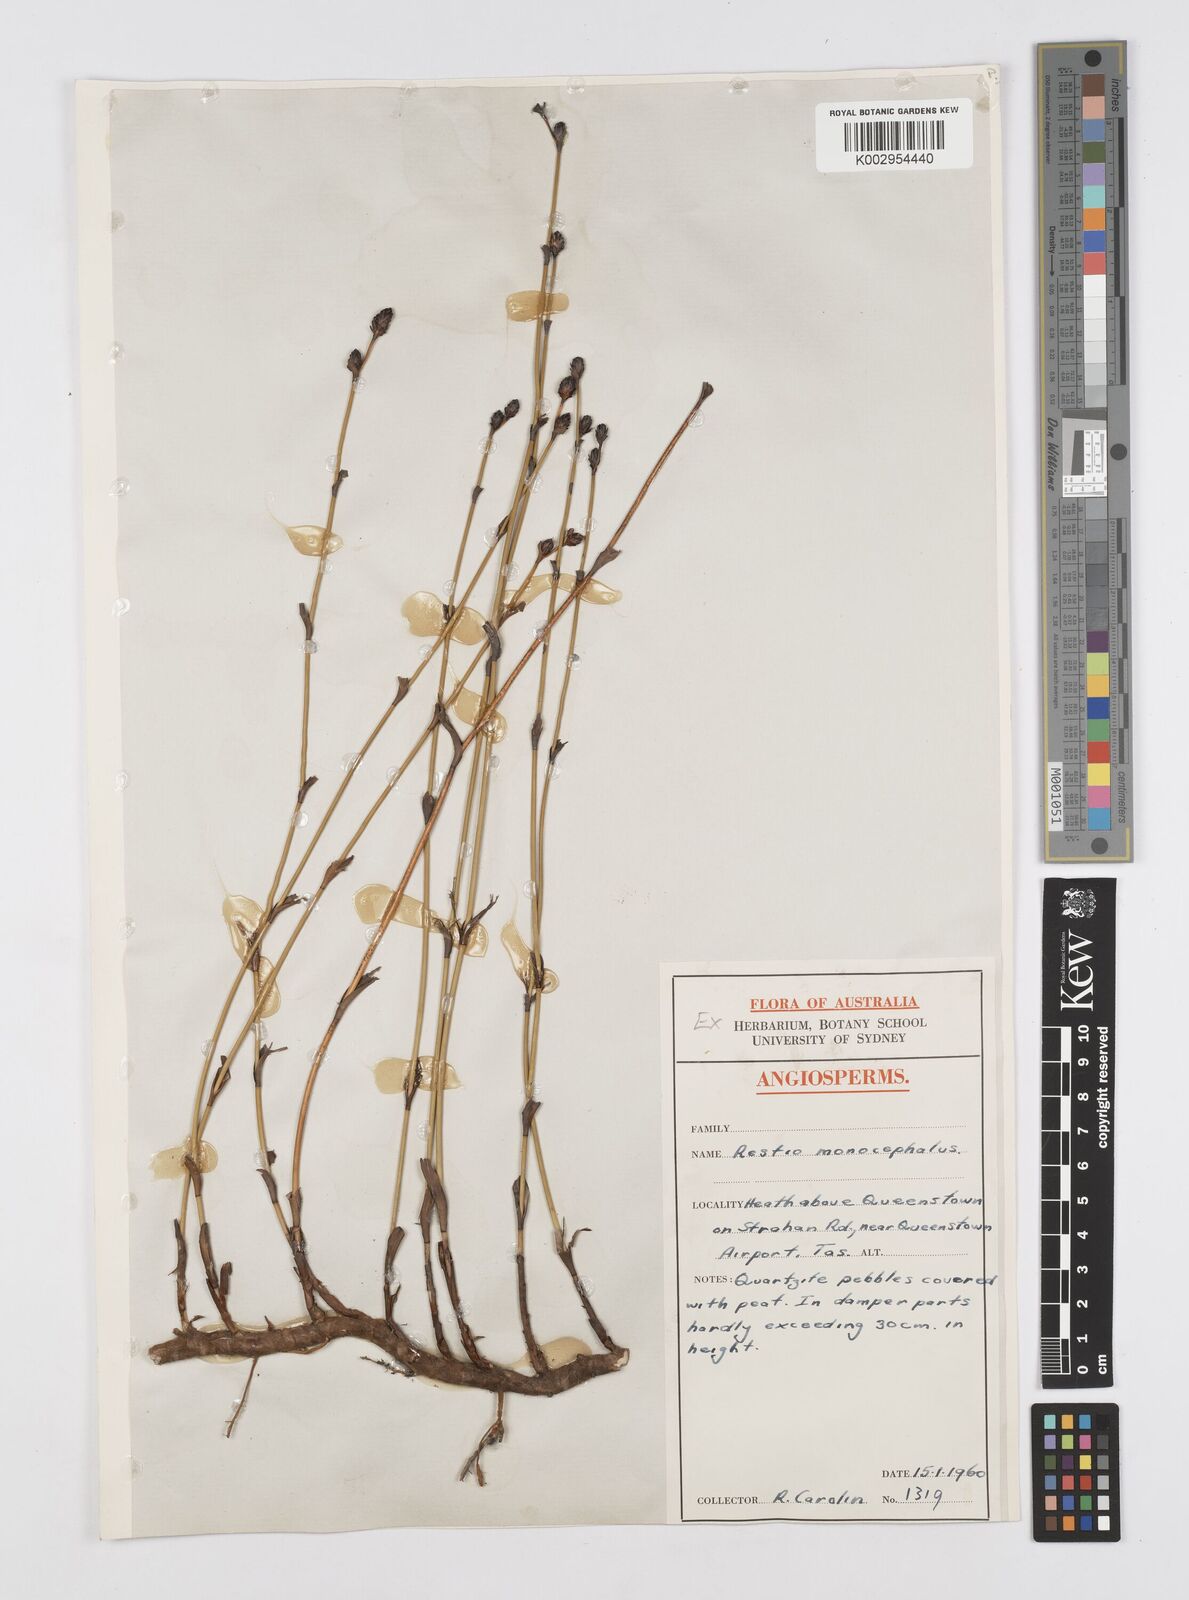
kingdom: Plantae
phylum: Tracheophyta
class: Liliopsida
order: Poales
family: Restionaceae
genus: Chordifex
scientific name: Chordifex hookeri
